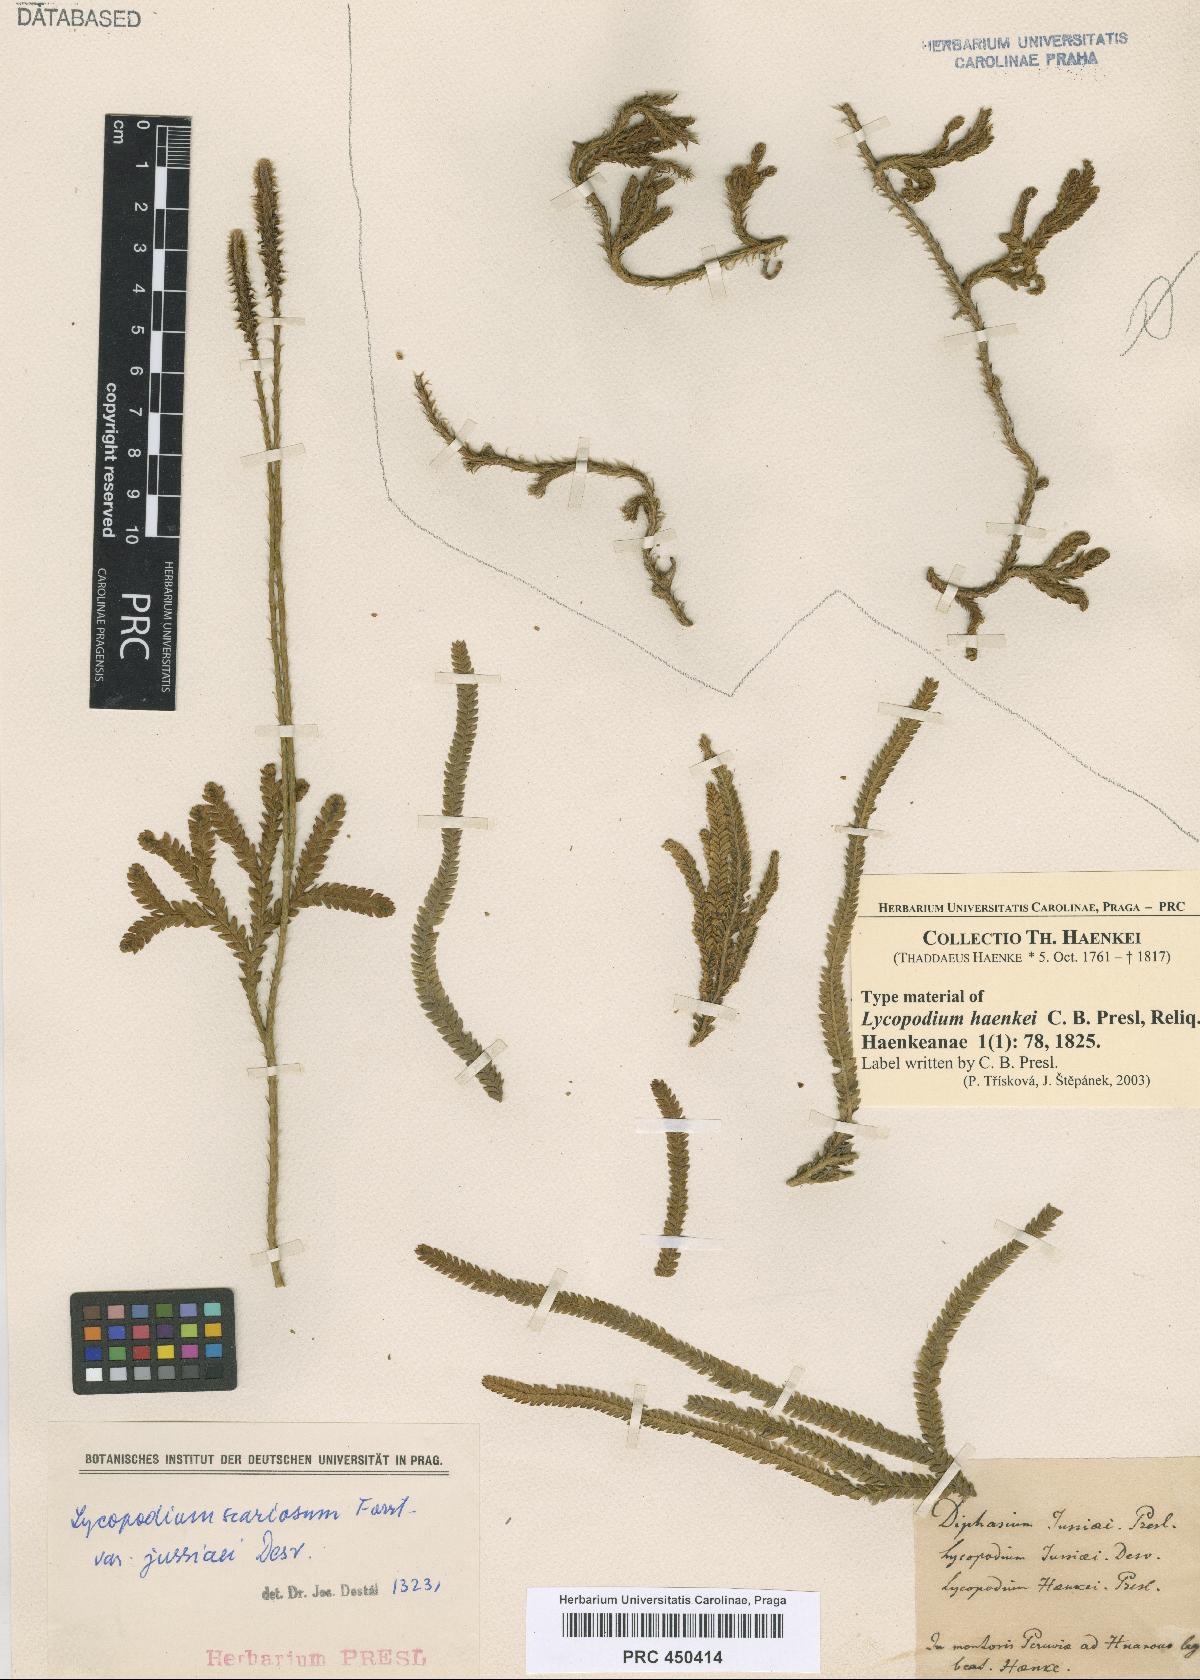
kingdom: Plantae
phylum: Tracheophyta
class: Lycopodiopsida
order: Lycopodiales
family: Lycopodiaceae
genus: Diphasium
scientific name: Diphasium jussiaei
